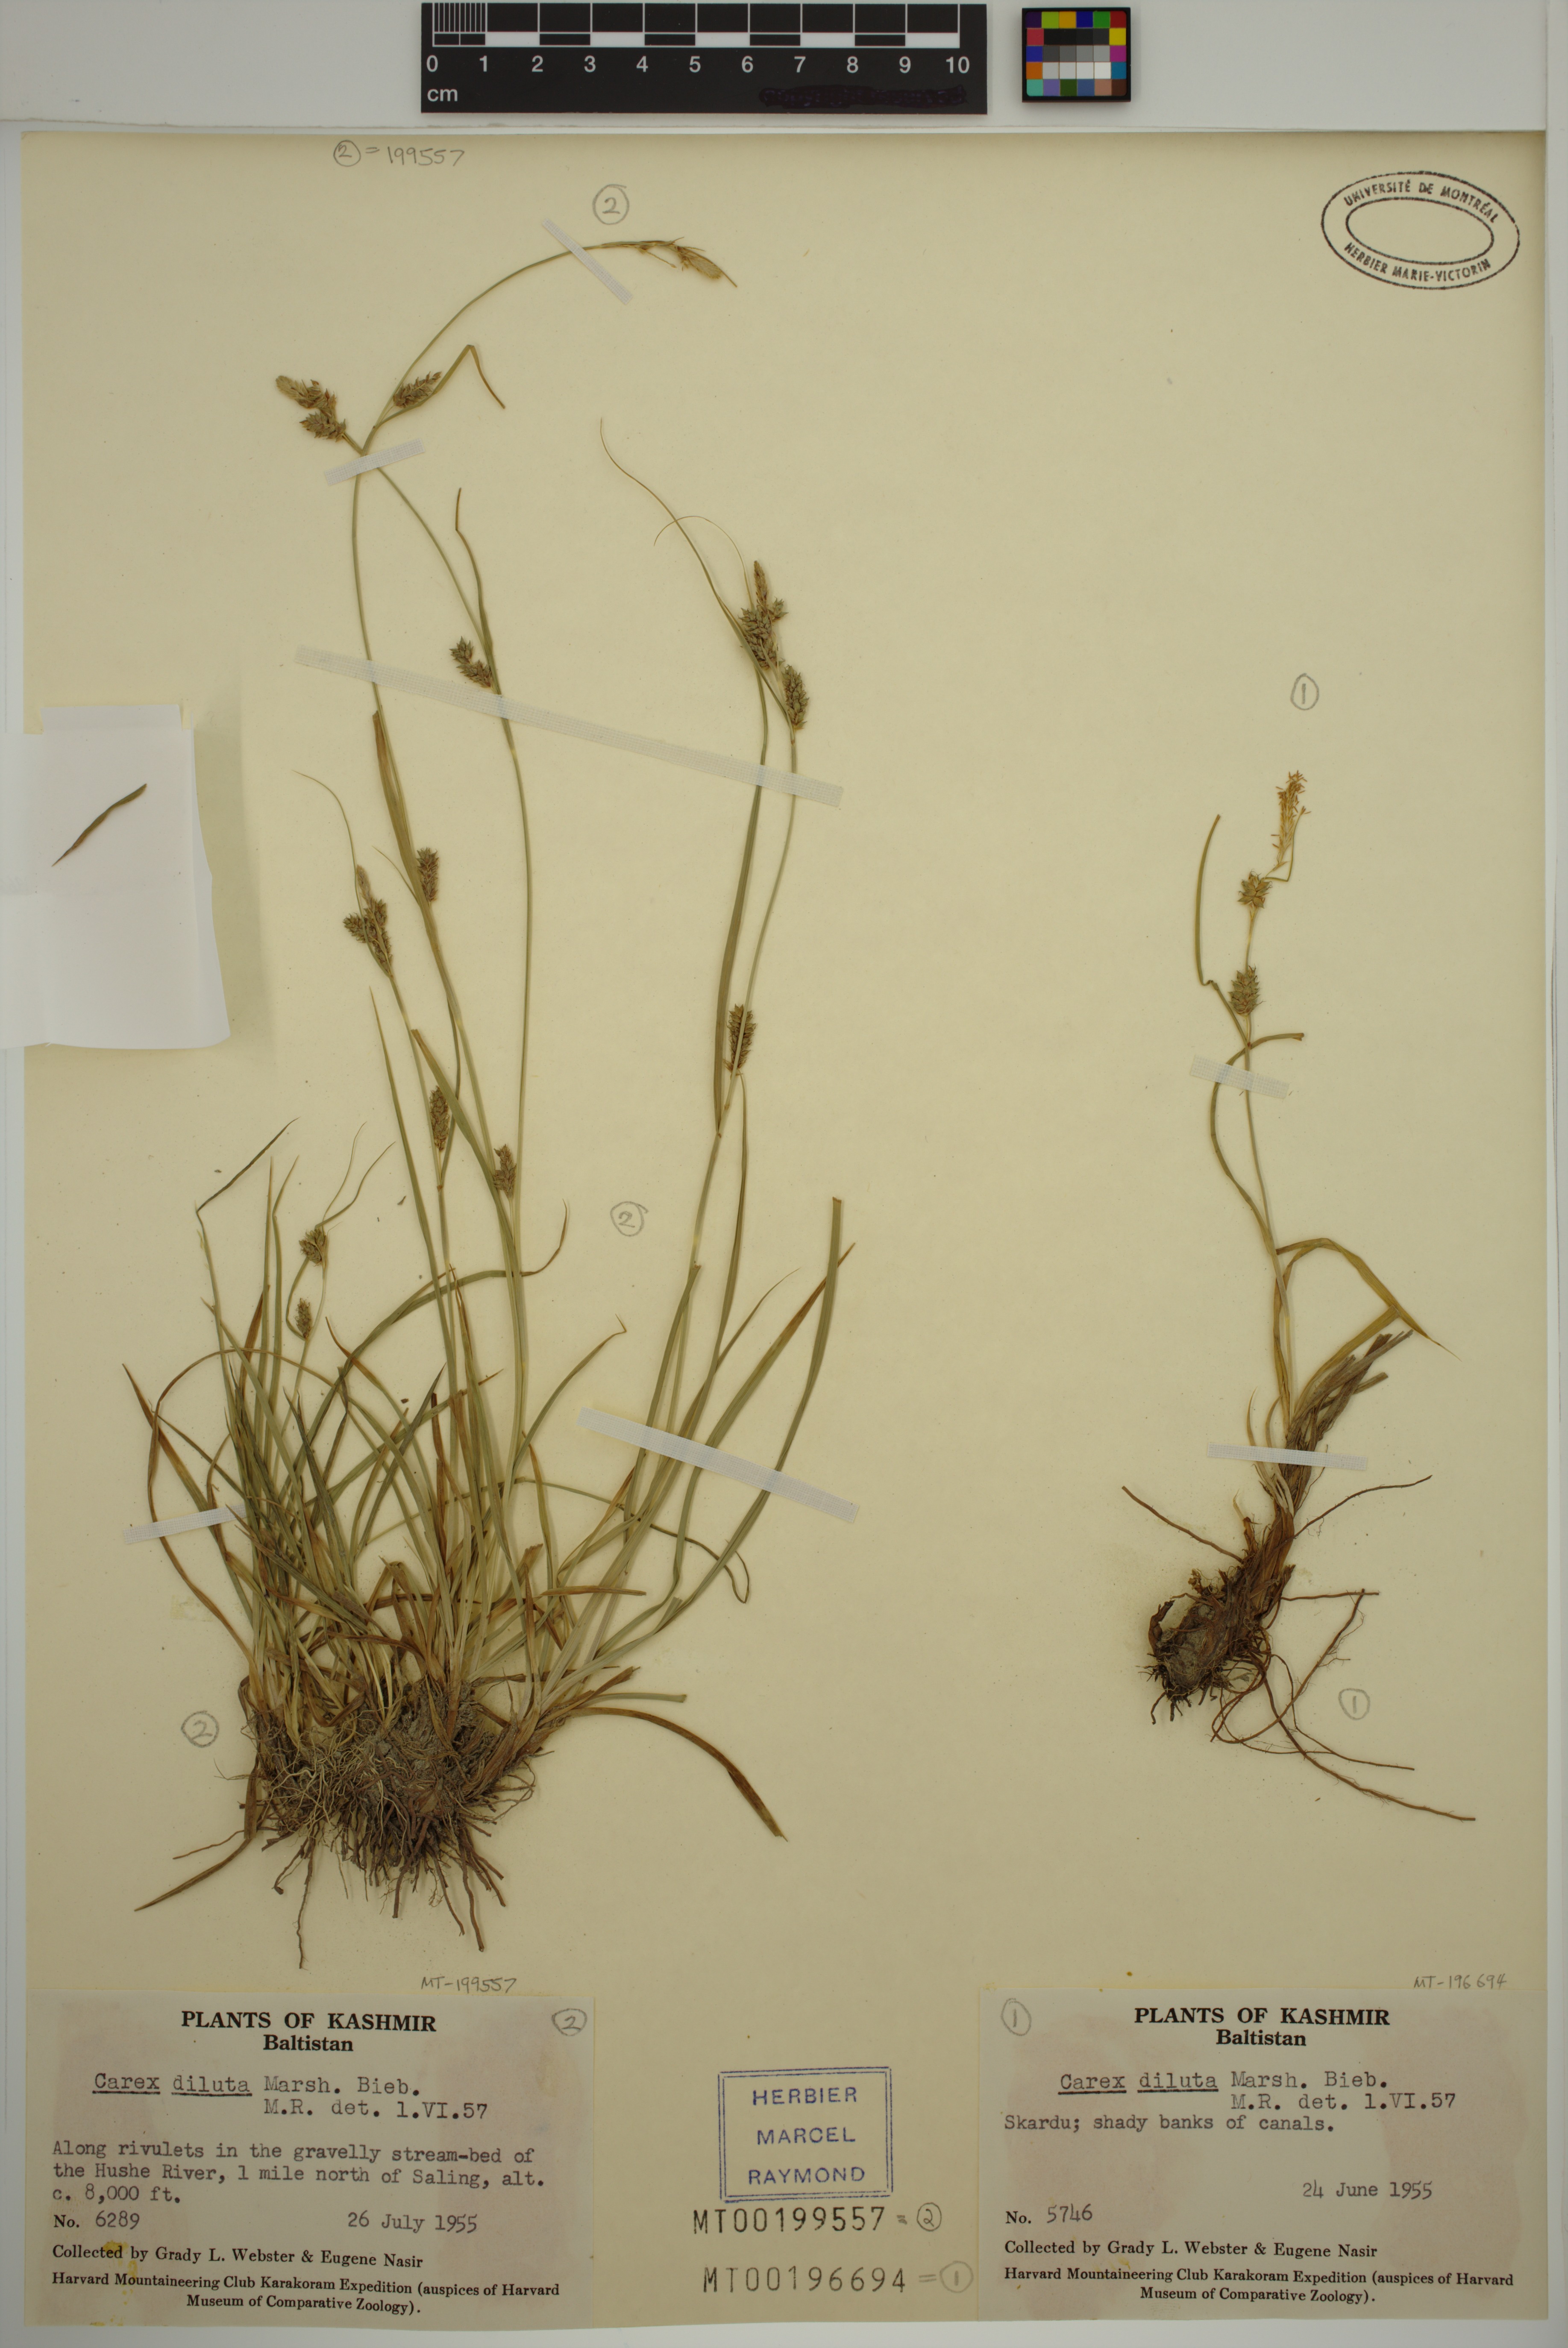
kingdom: Plantae
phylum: Tracheophyta
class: Liliopsida
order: Poales
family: Cyperaceae
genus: Carex
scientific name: Carex diluta
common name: Sedge
